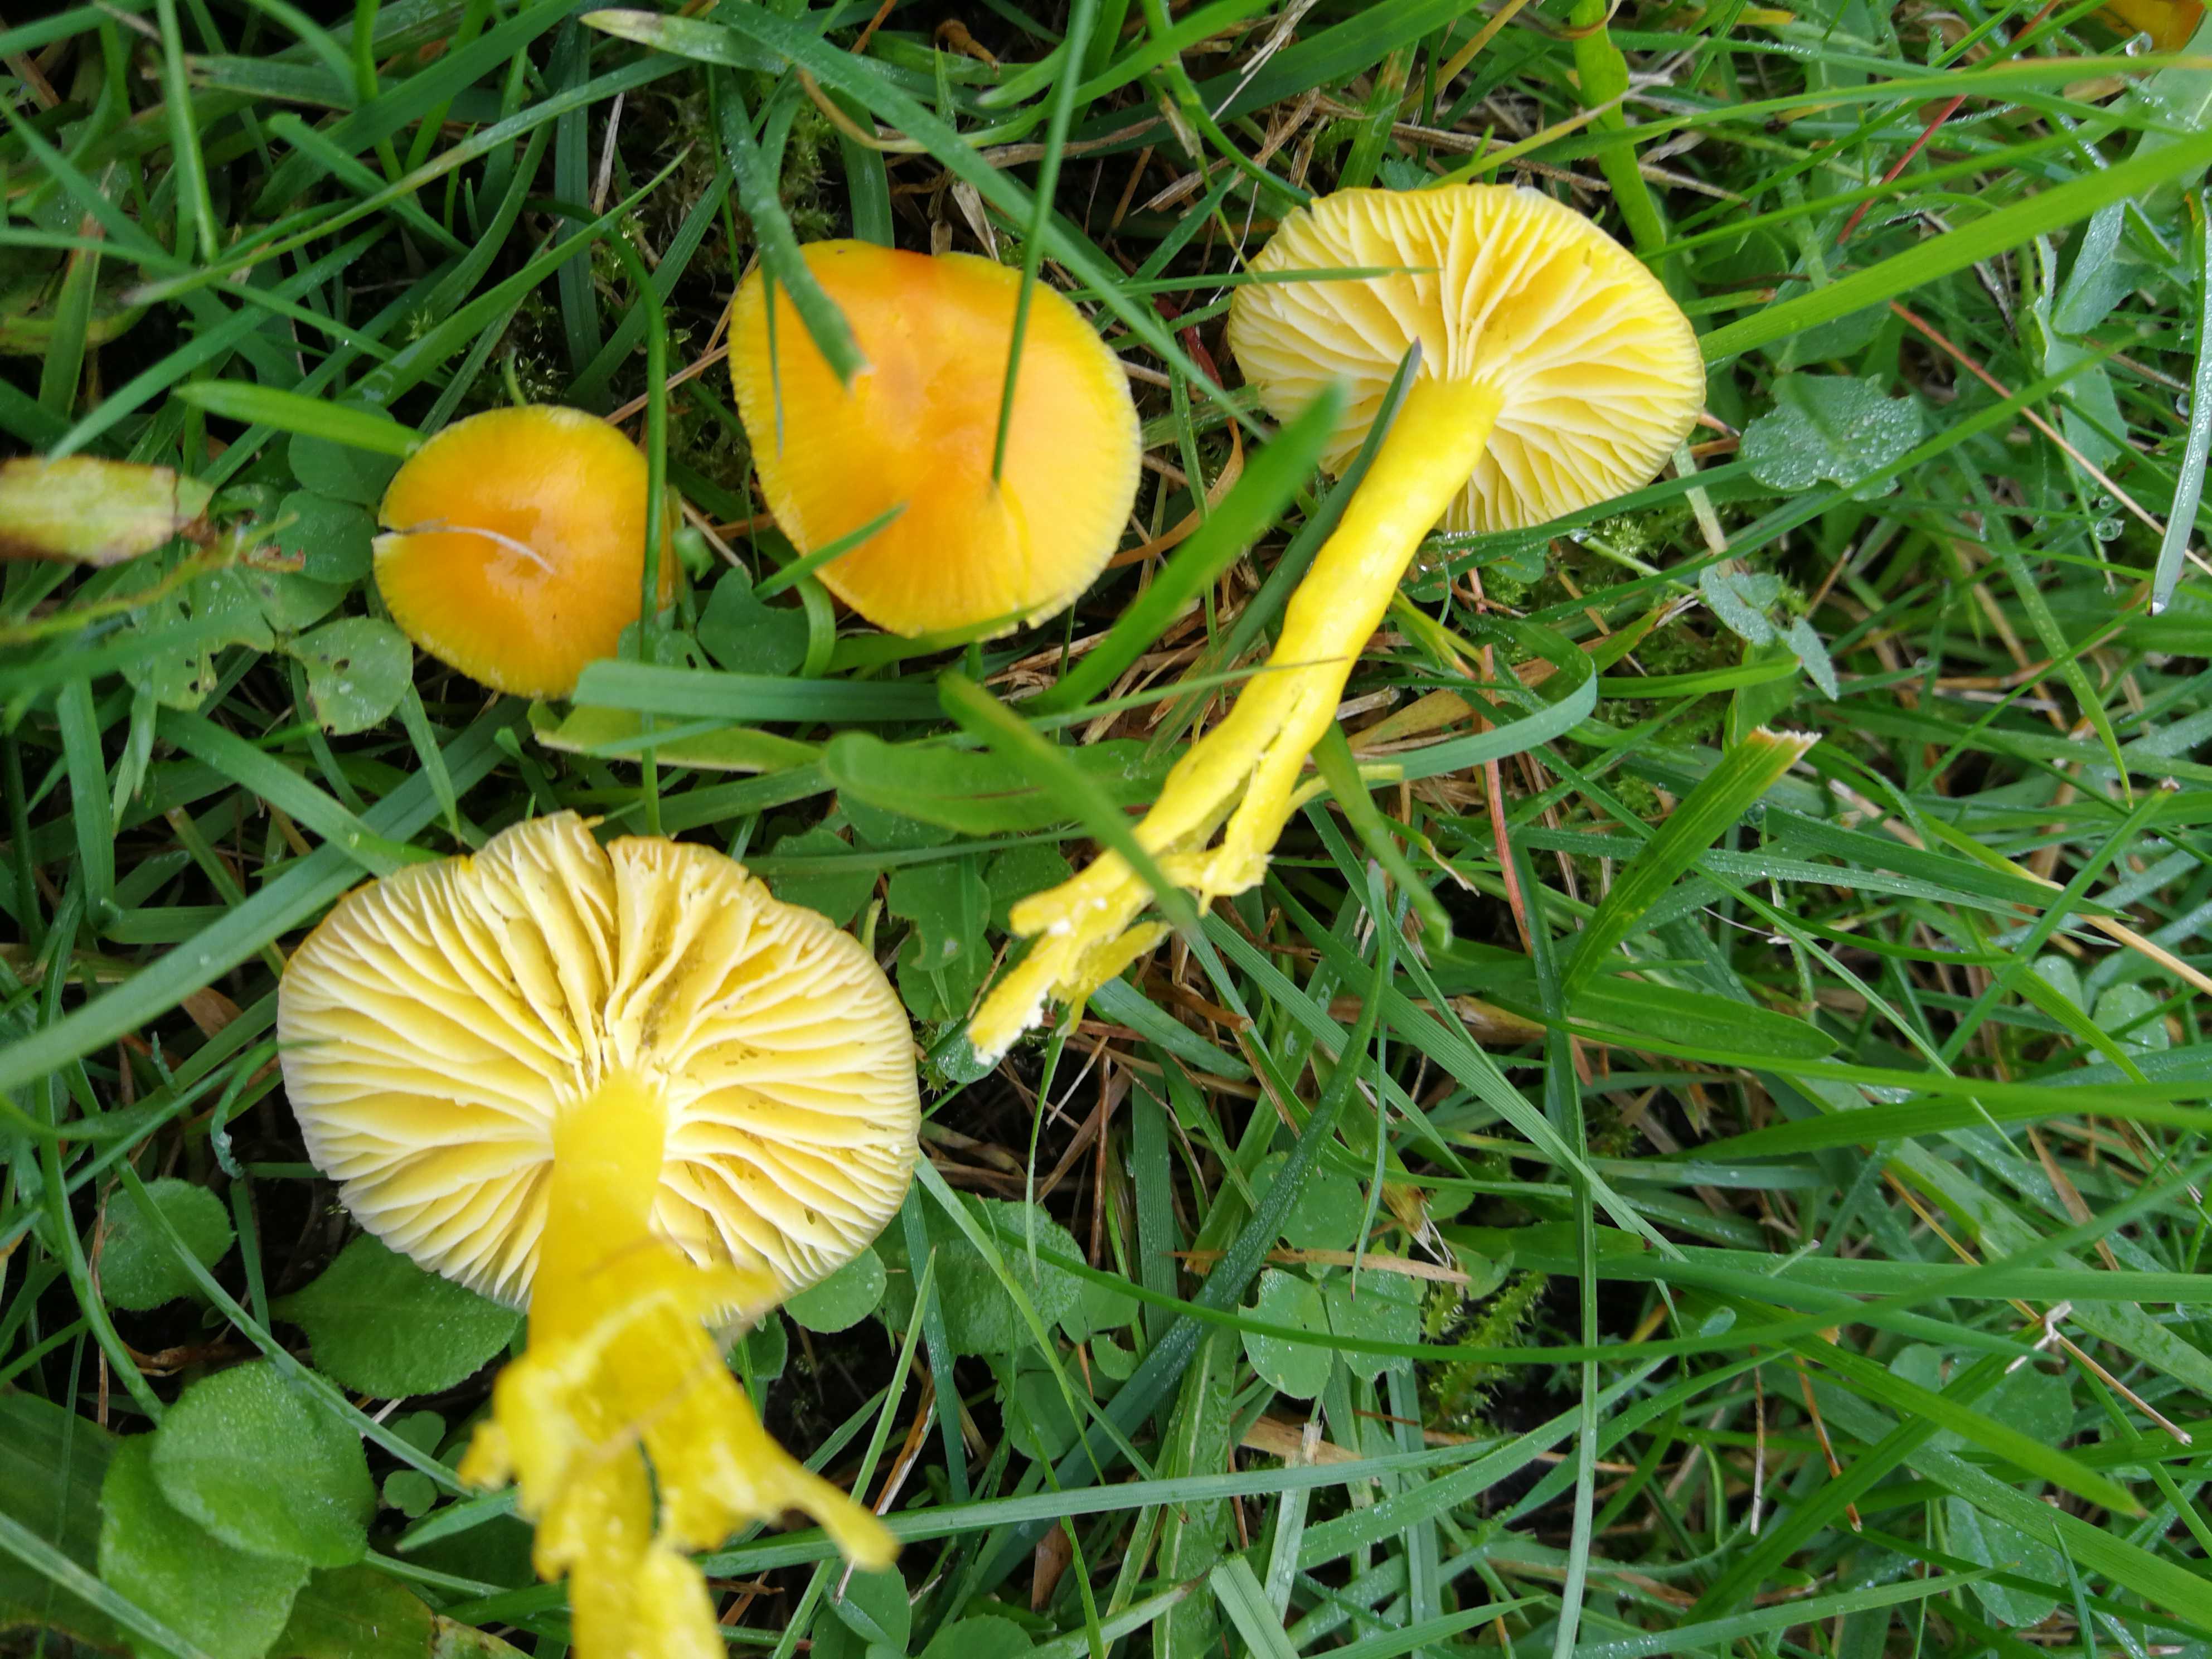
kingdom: Fungi
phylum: Basidiomycota
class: Agaricomycetes
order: Agaricales
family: Hygrophoraceae
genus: Hygrocybe
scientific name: Hygrocybe ceracea
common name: voksgul vokshat
